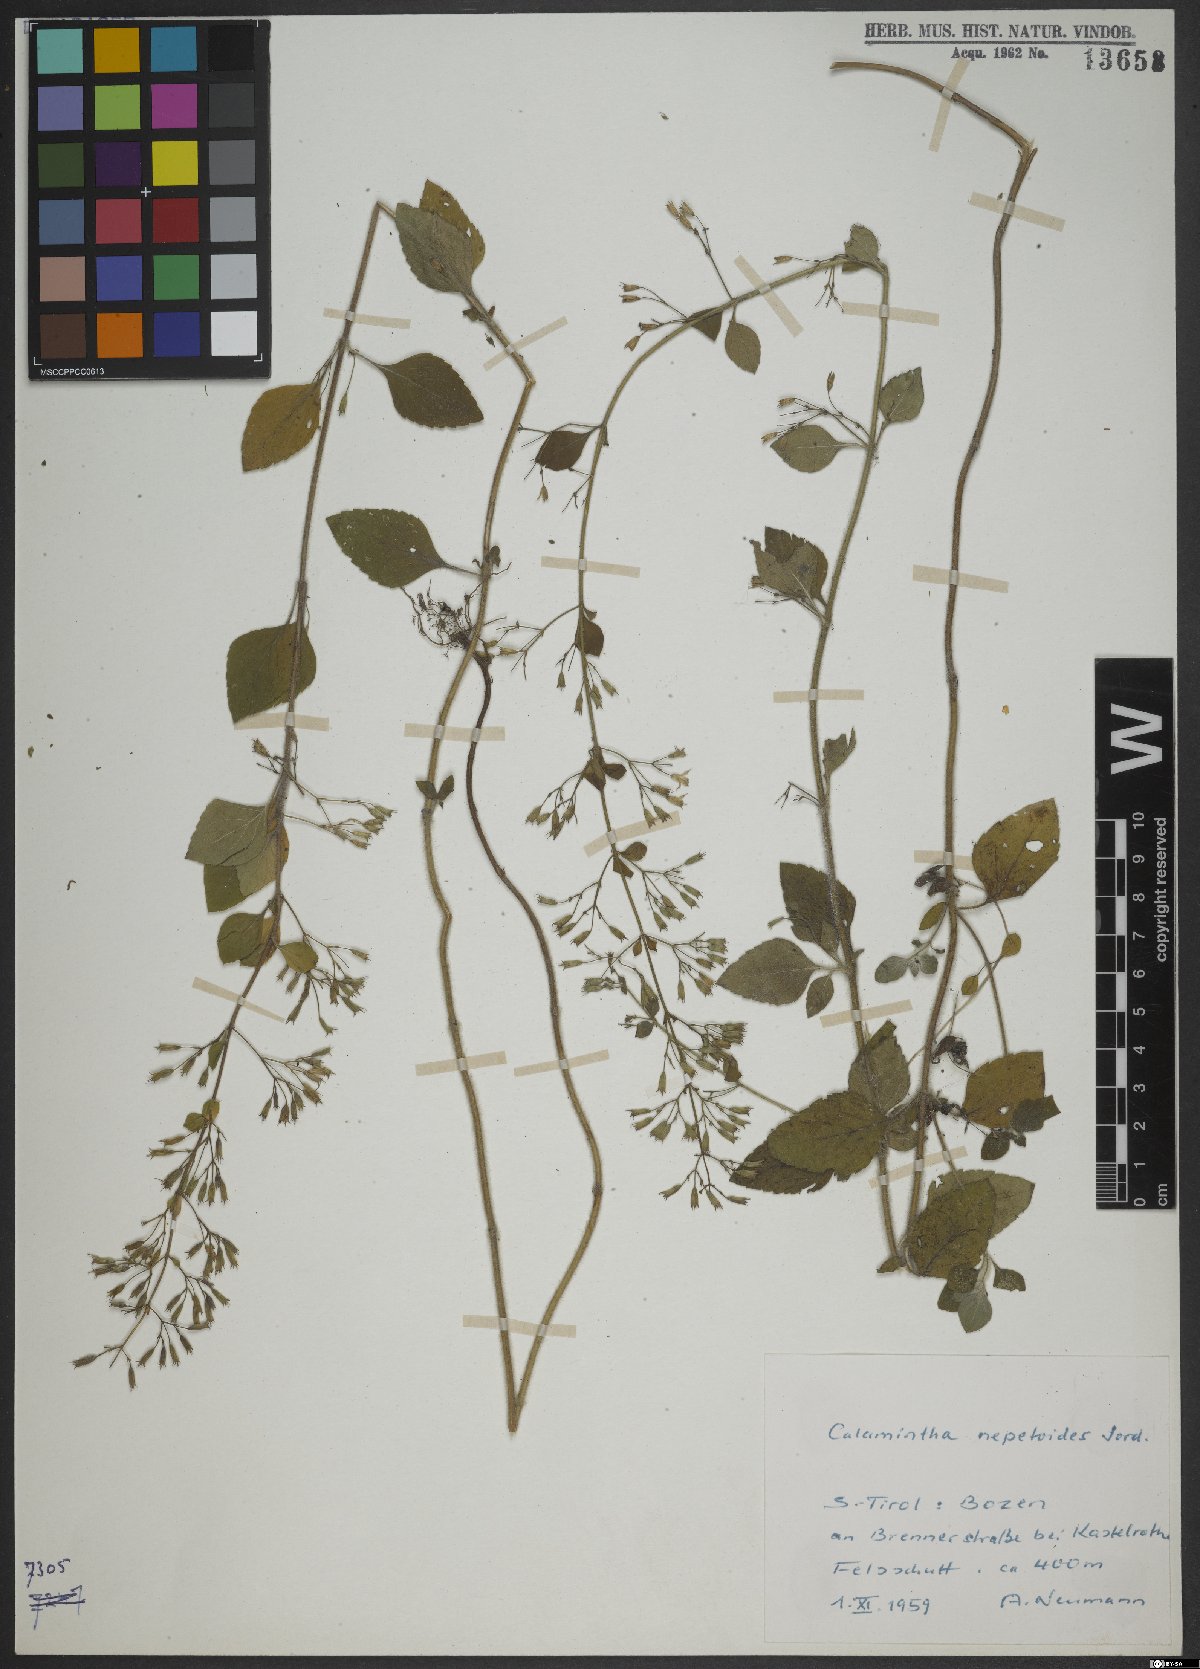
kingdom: Plantae
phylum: Tracheophyta
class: Magnoliopsida
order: Lamiales
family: Lamiaceae
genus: Clinopodium
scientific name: Clinopodium nepeta
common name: Lesser calamint
